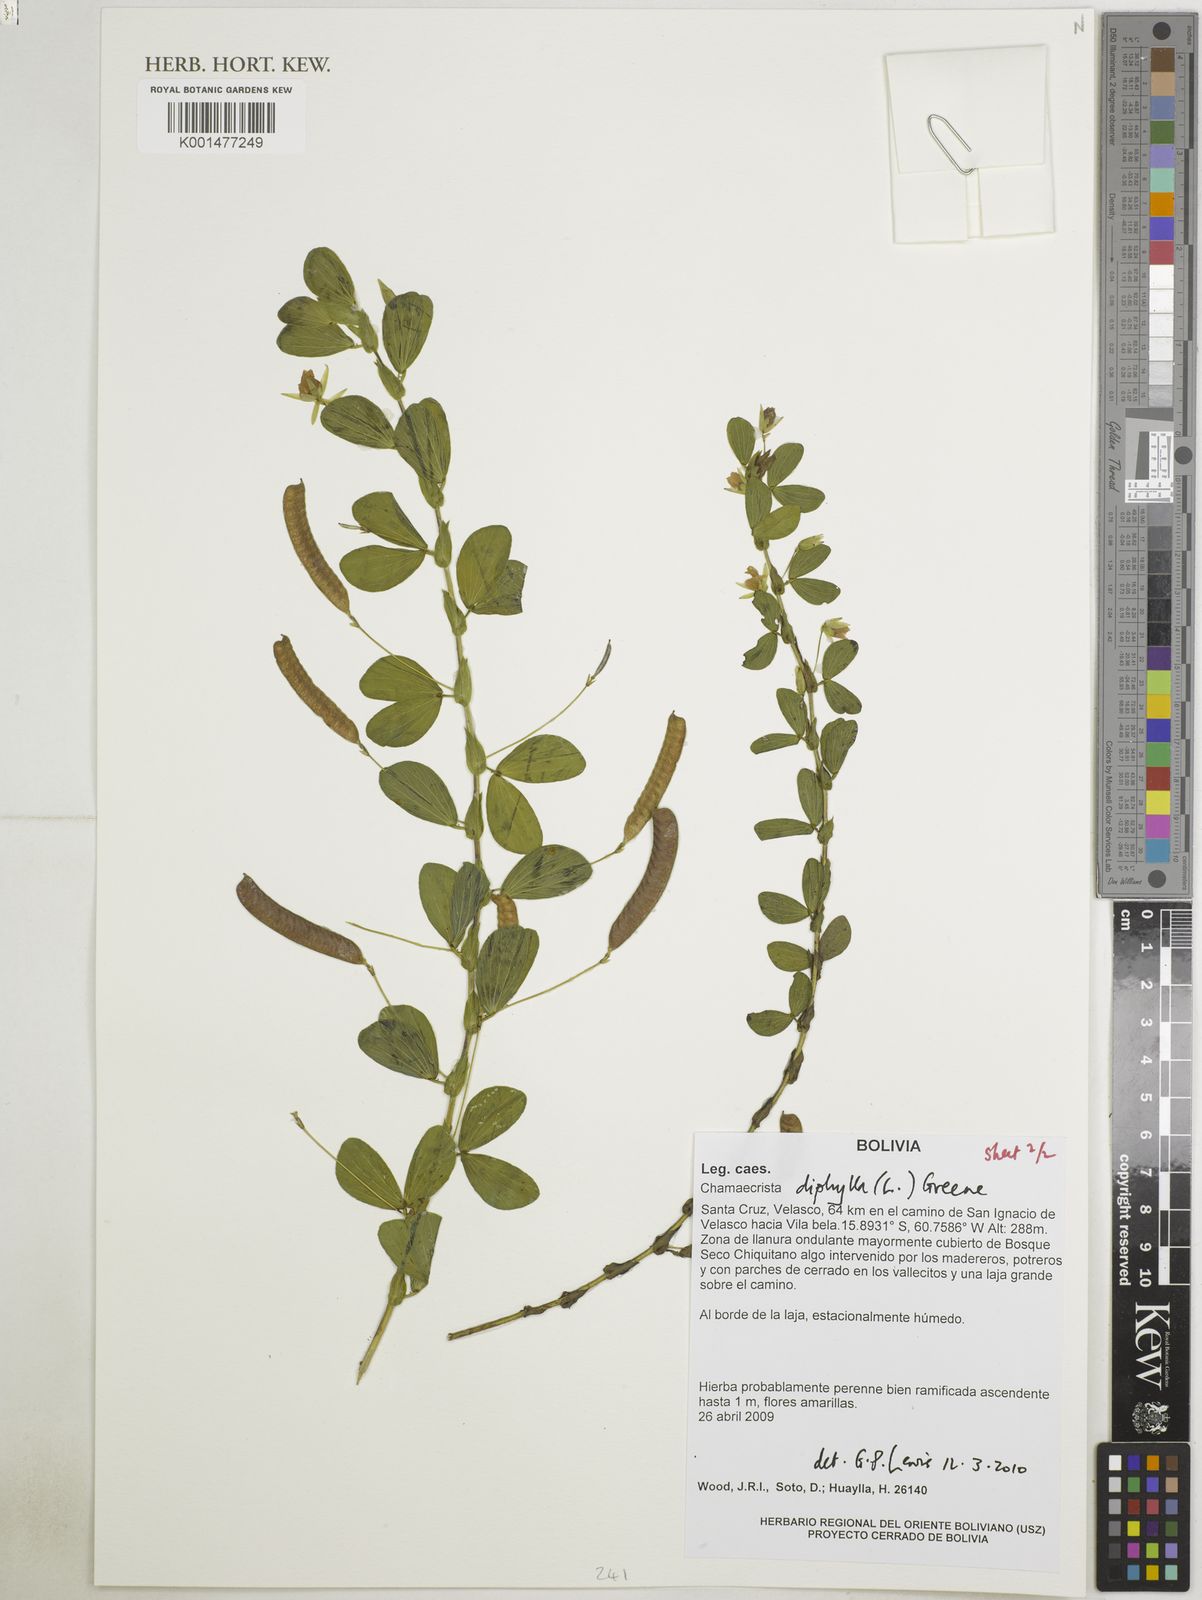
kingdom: Plantae
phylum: Tracheophyta
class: Magnoliopsida
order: Fabales
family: Fabaceae
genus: Chamaecrista
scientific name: Chamaecrista diphylla
